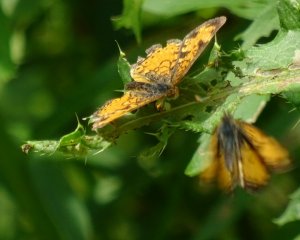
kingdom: Animalia
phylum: Arthropoda
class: Insecta
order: Lepidoptera
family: Nymphalidae
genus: Phyciodes
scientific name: Phyciodes tharos
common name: Northern Crescent
